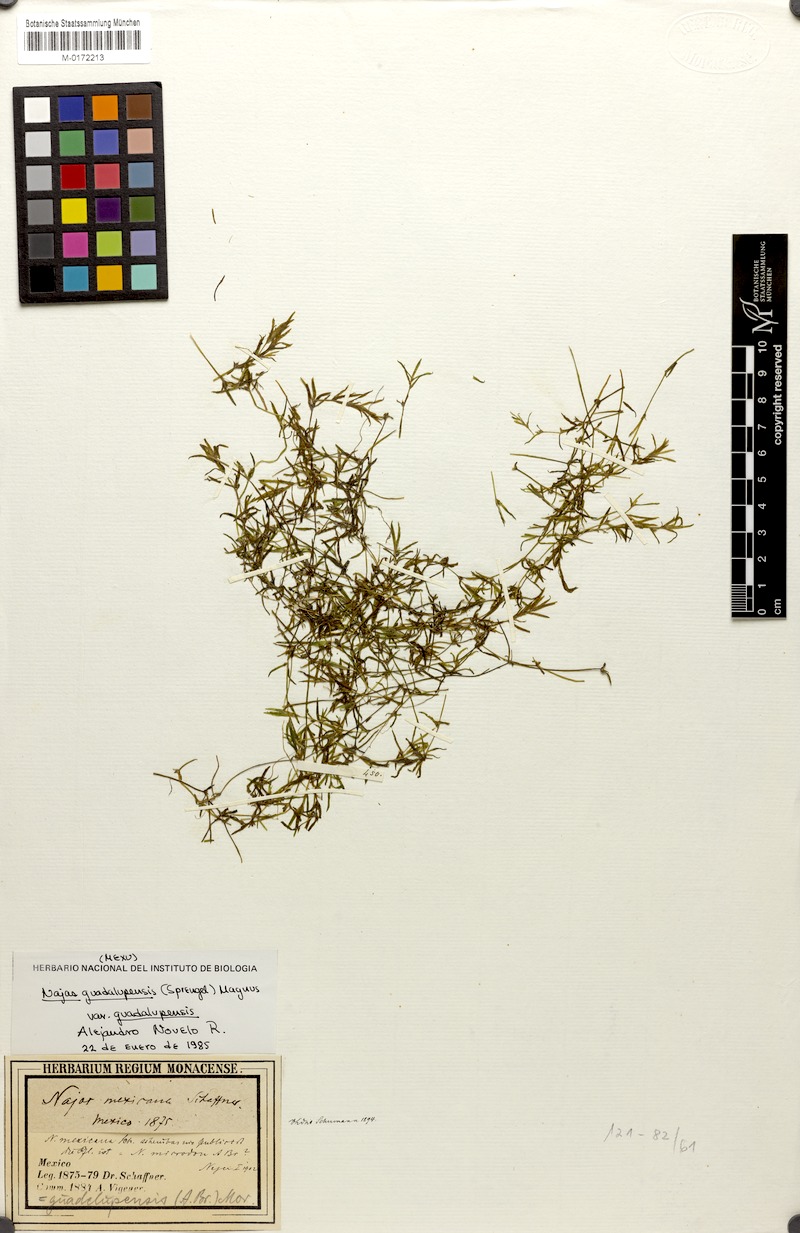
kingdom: Plantae
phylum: Tracheophyta
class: Liliopsida
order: Alismatales
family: Hydrocharitaceae
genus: Najas
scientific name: Najas guadalupensis
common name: Southern naiad
